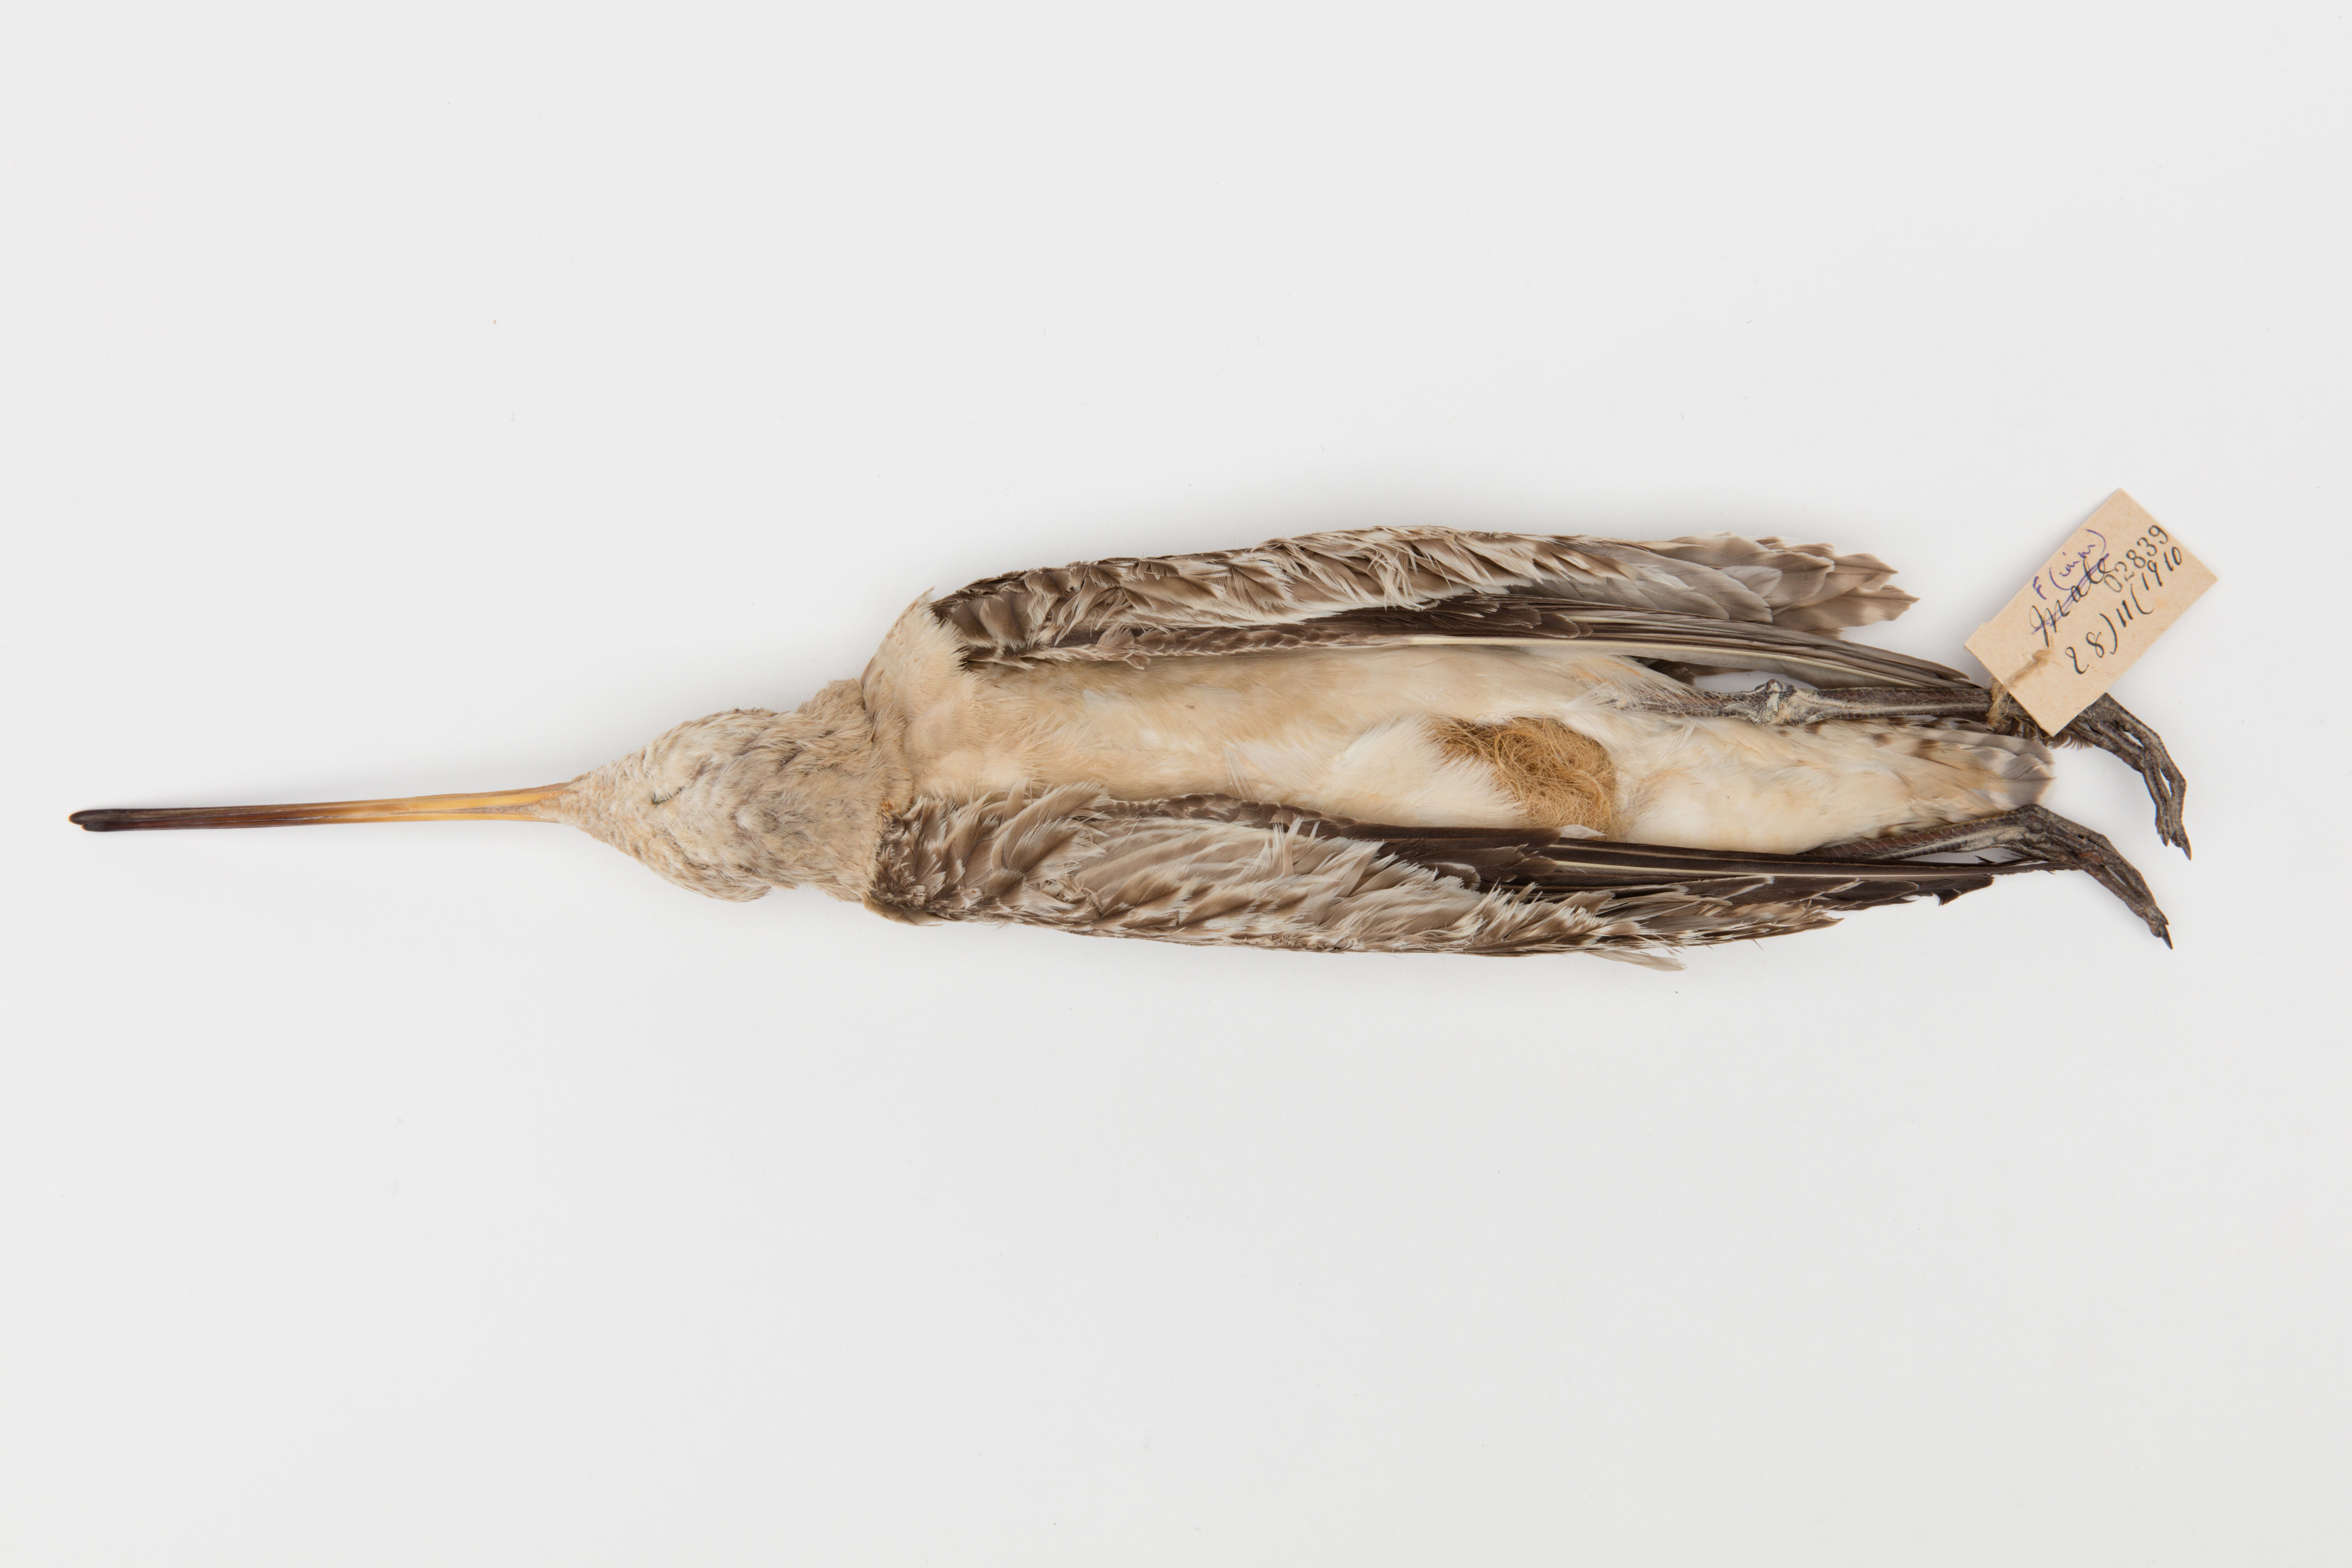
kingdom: Animalia
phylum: Chordata
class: Aves
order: Charadriiformes
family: Scolopacidae
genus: Limosa
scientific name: Limosa lapponica
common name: Bar-tailed godwit
